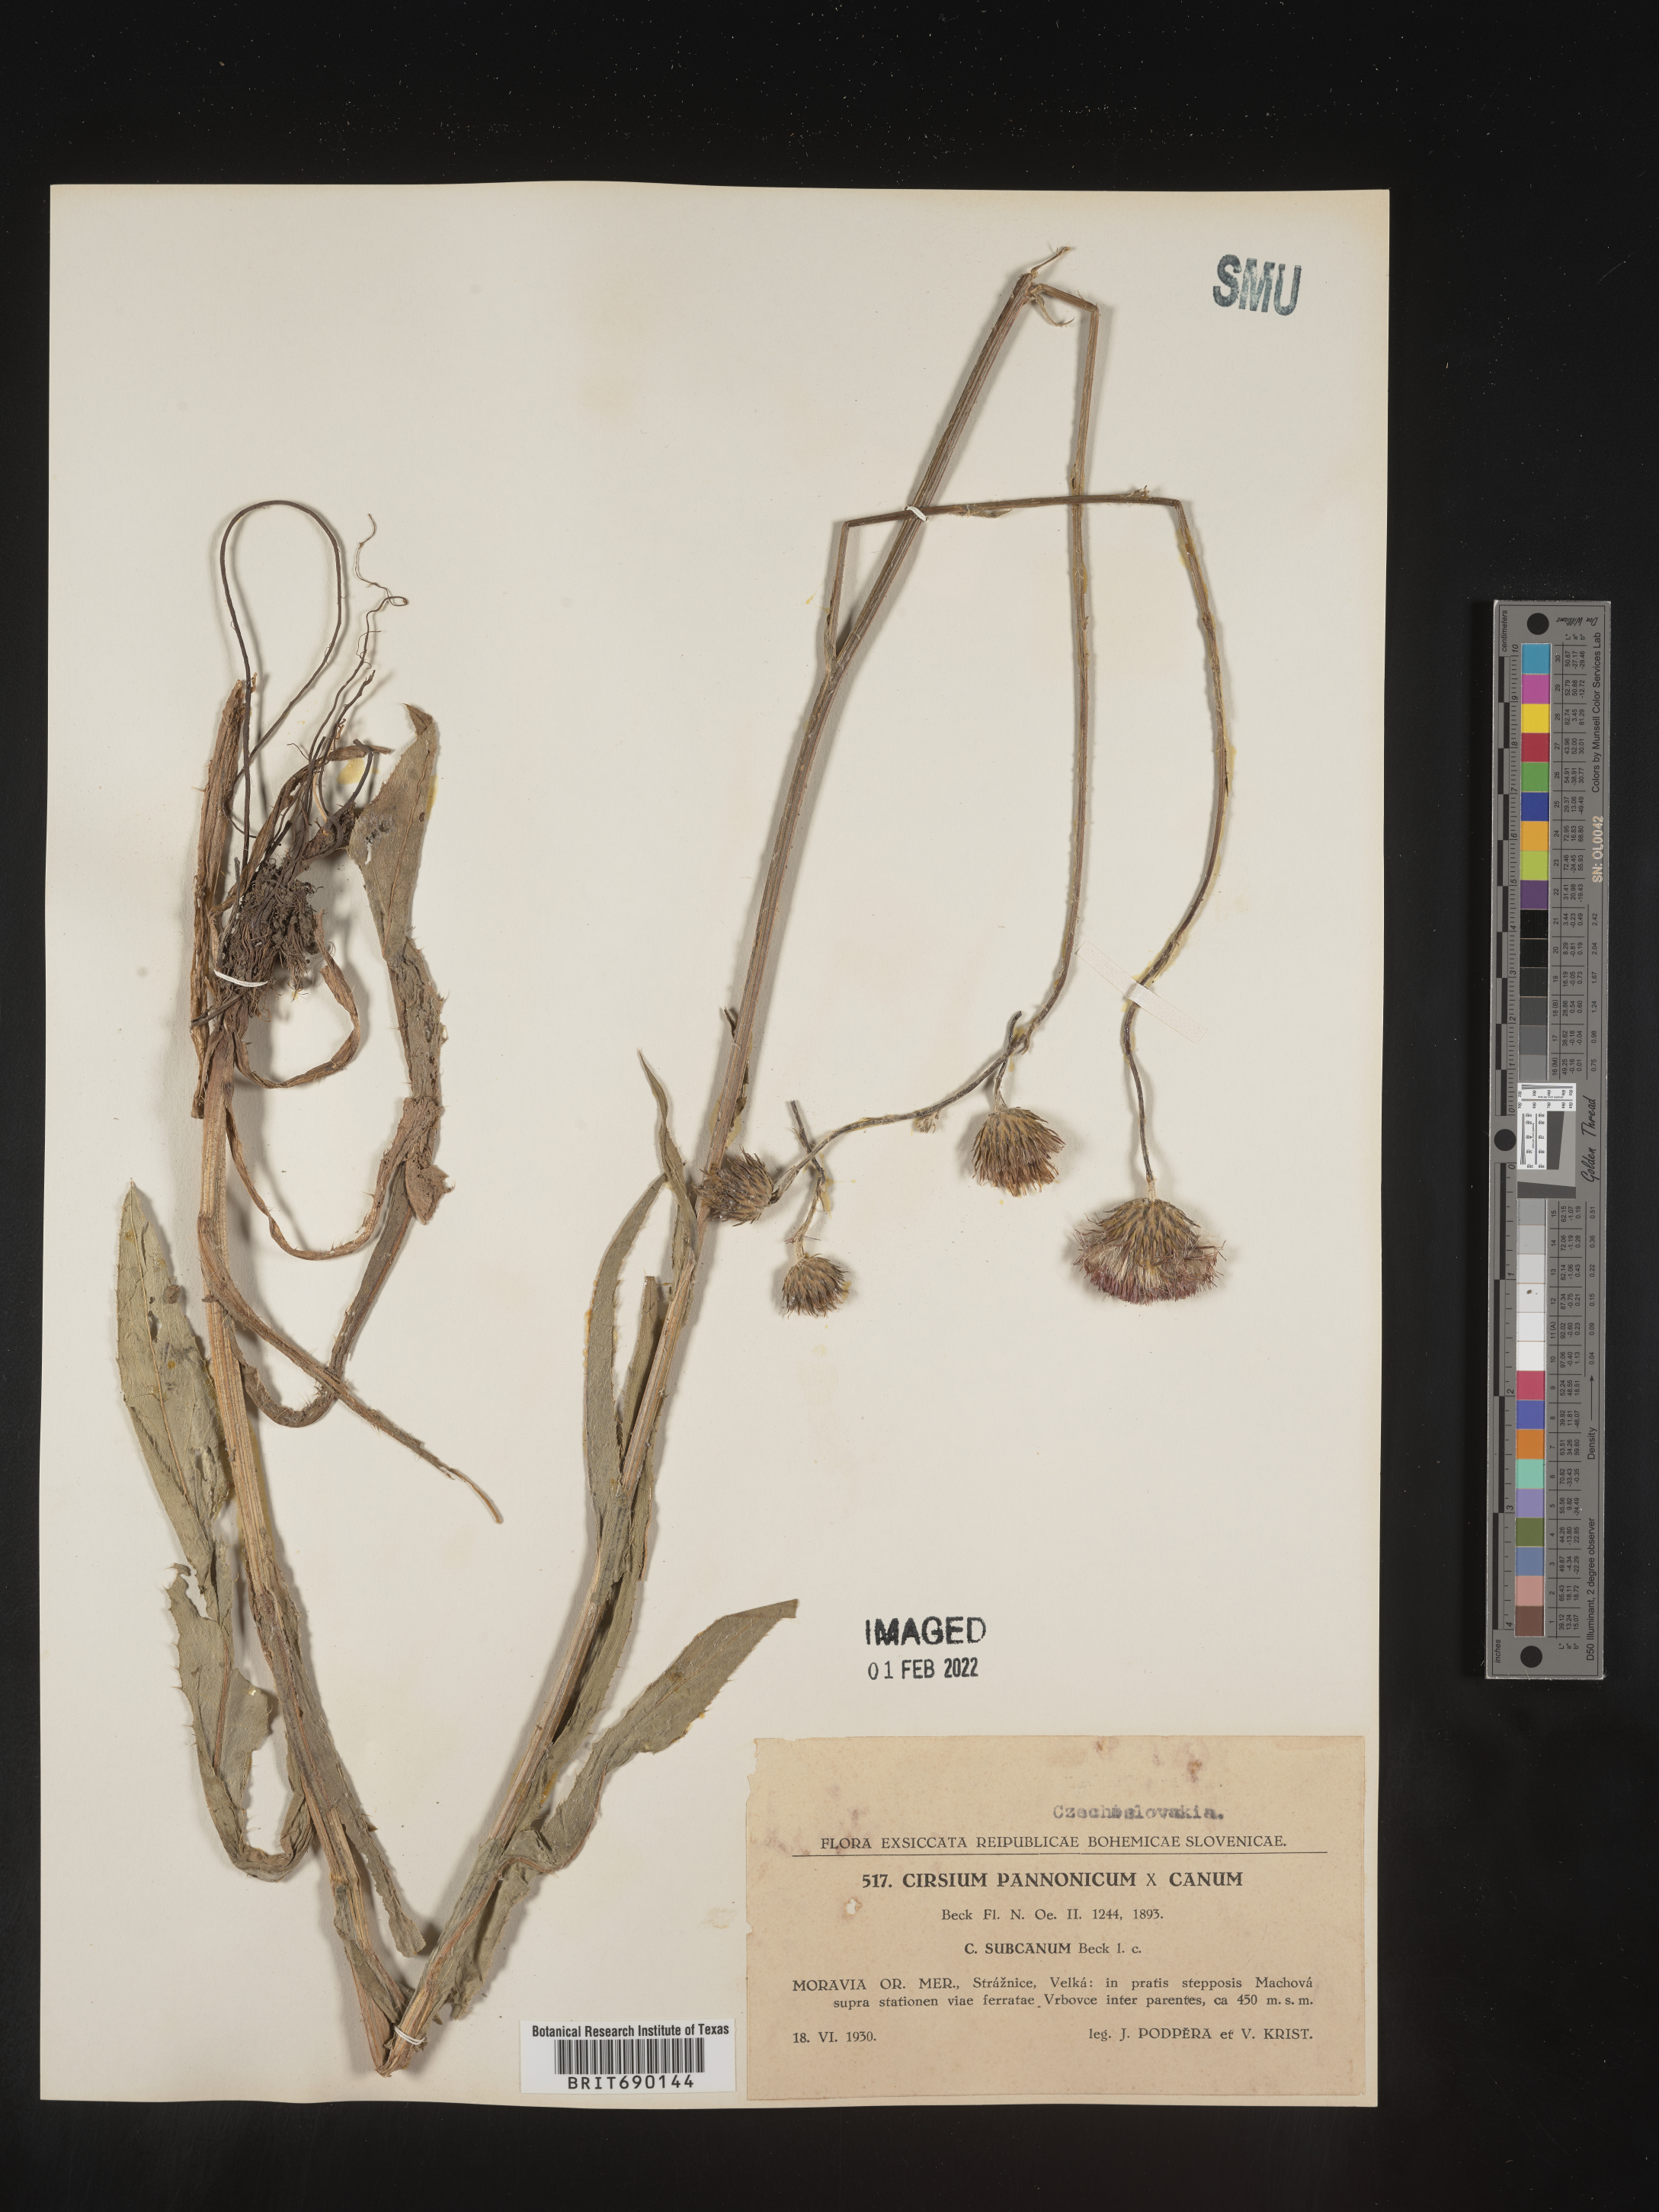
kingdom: Plantae
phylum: Tracheophyta
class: Magnoliopsida
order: Asterales
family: Asteraceae
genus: Cirsium
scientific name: Cirsium
